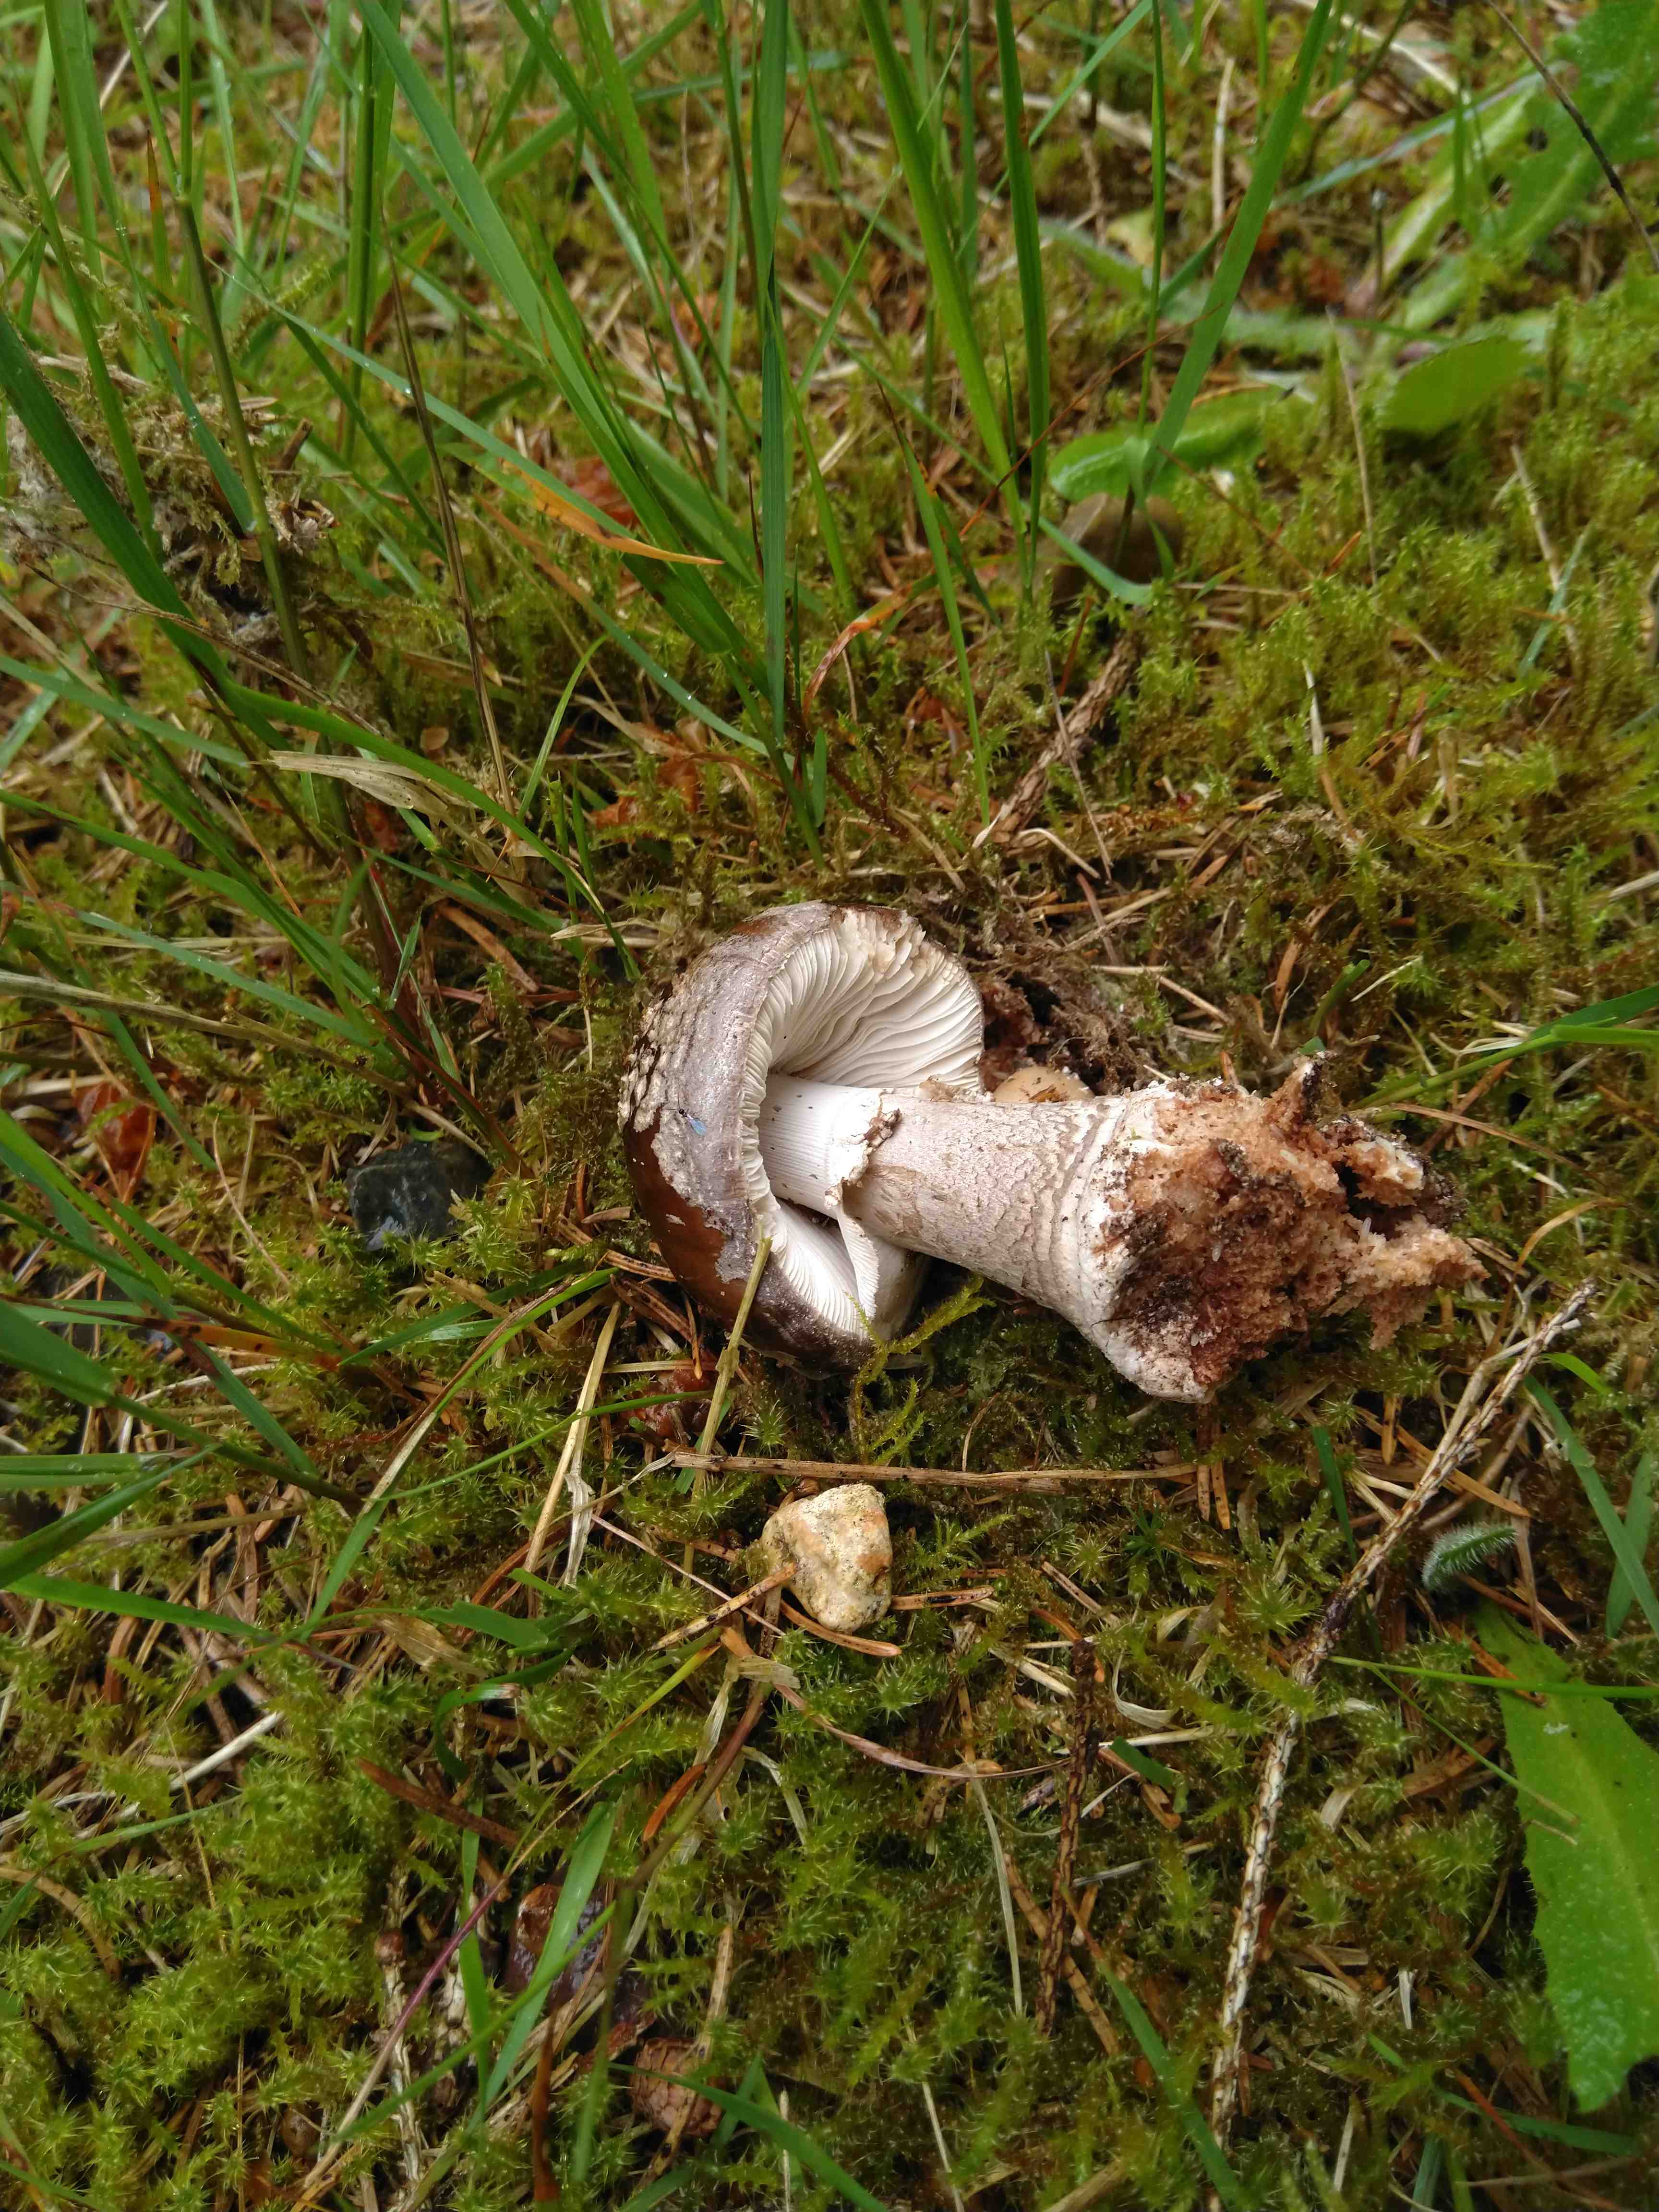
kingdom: Fungi
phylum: Basidiomycota
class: Agaricomycetes
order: Agaricales
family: Amanitaceae
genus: Amanita
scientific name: Amanita
